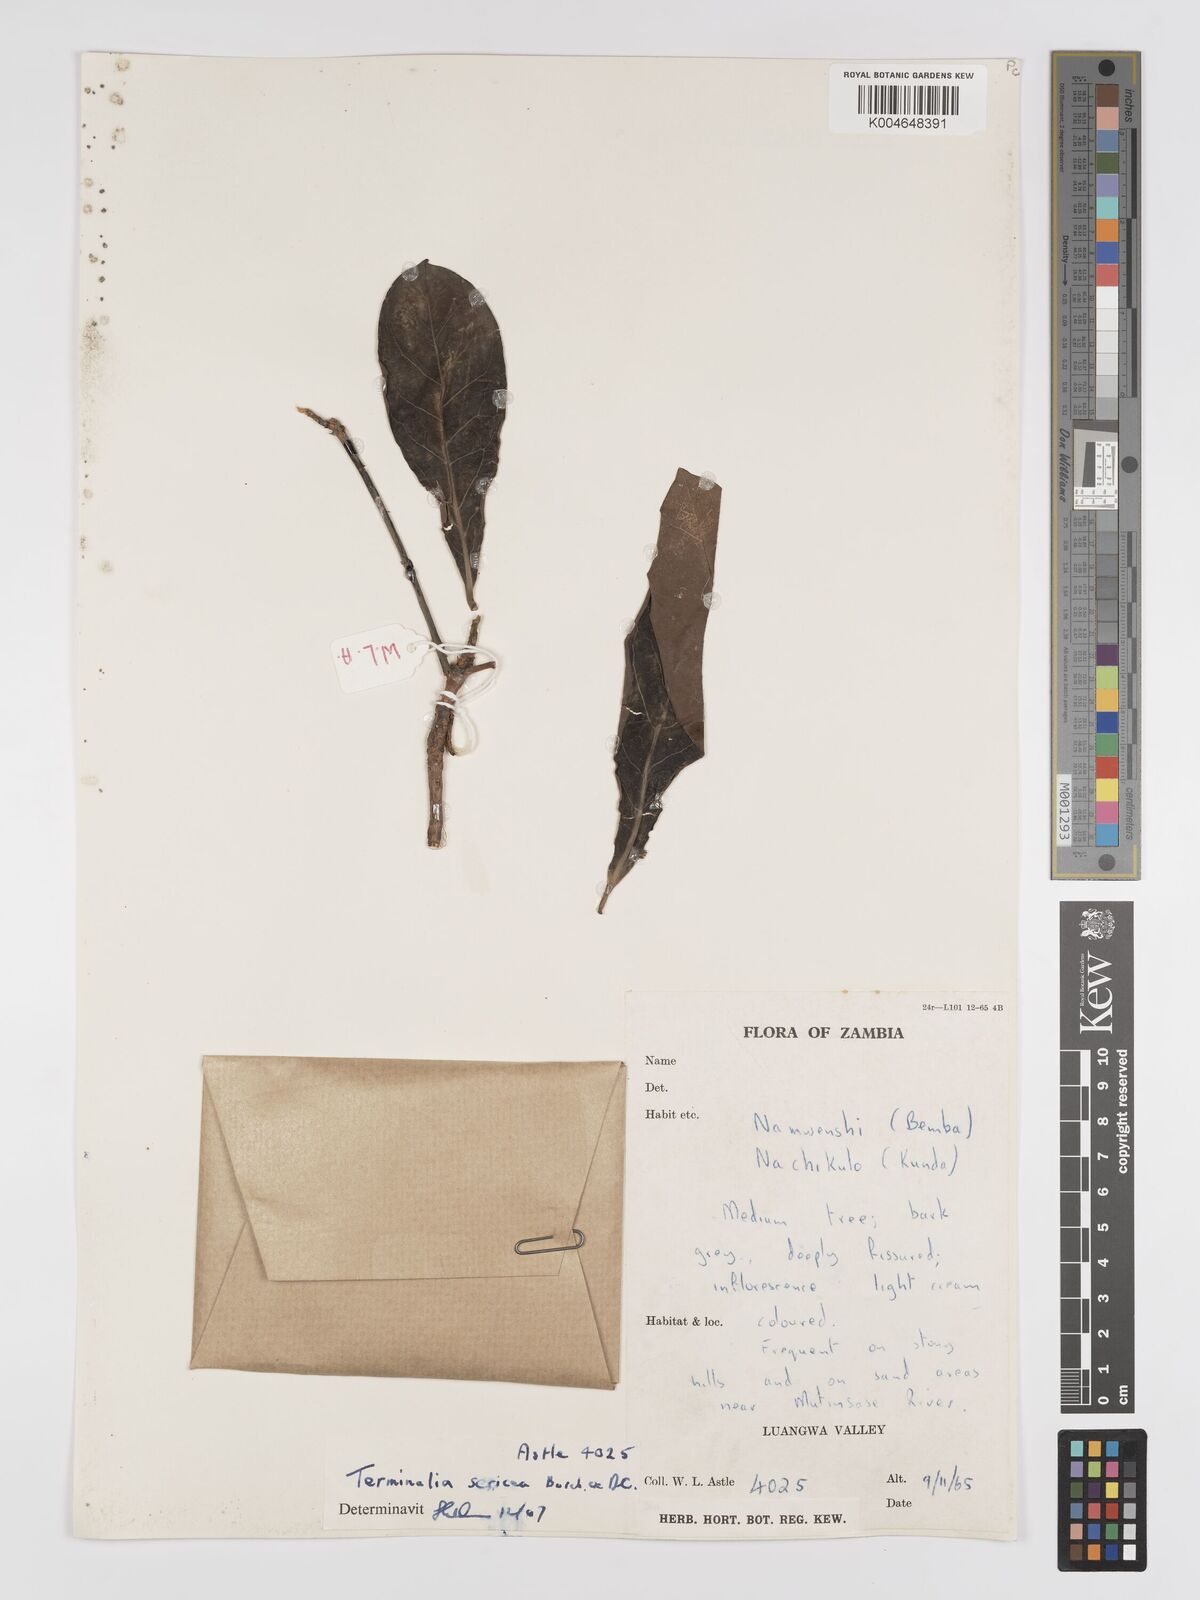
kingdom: Plantae
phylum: Tracheophyta
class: Magnoliopsida
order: Myrtales
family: Combretaceae
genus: Terminalia
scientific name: Terminalia
